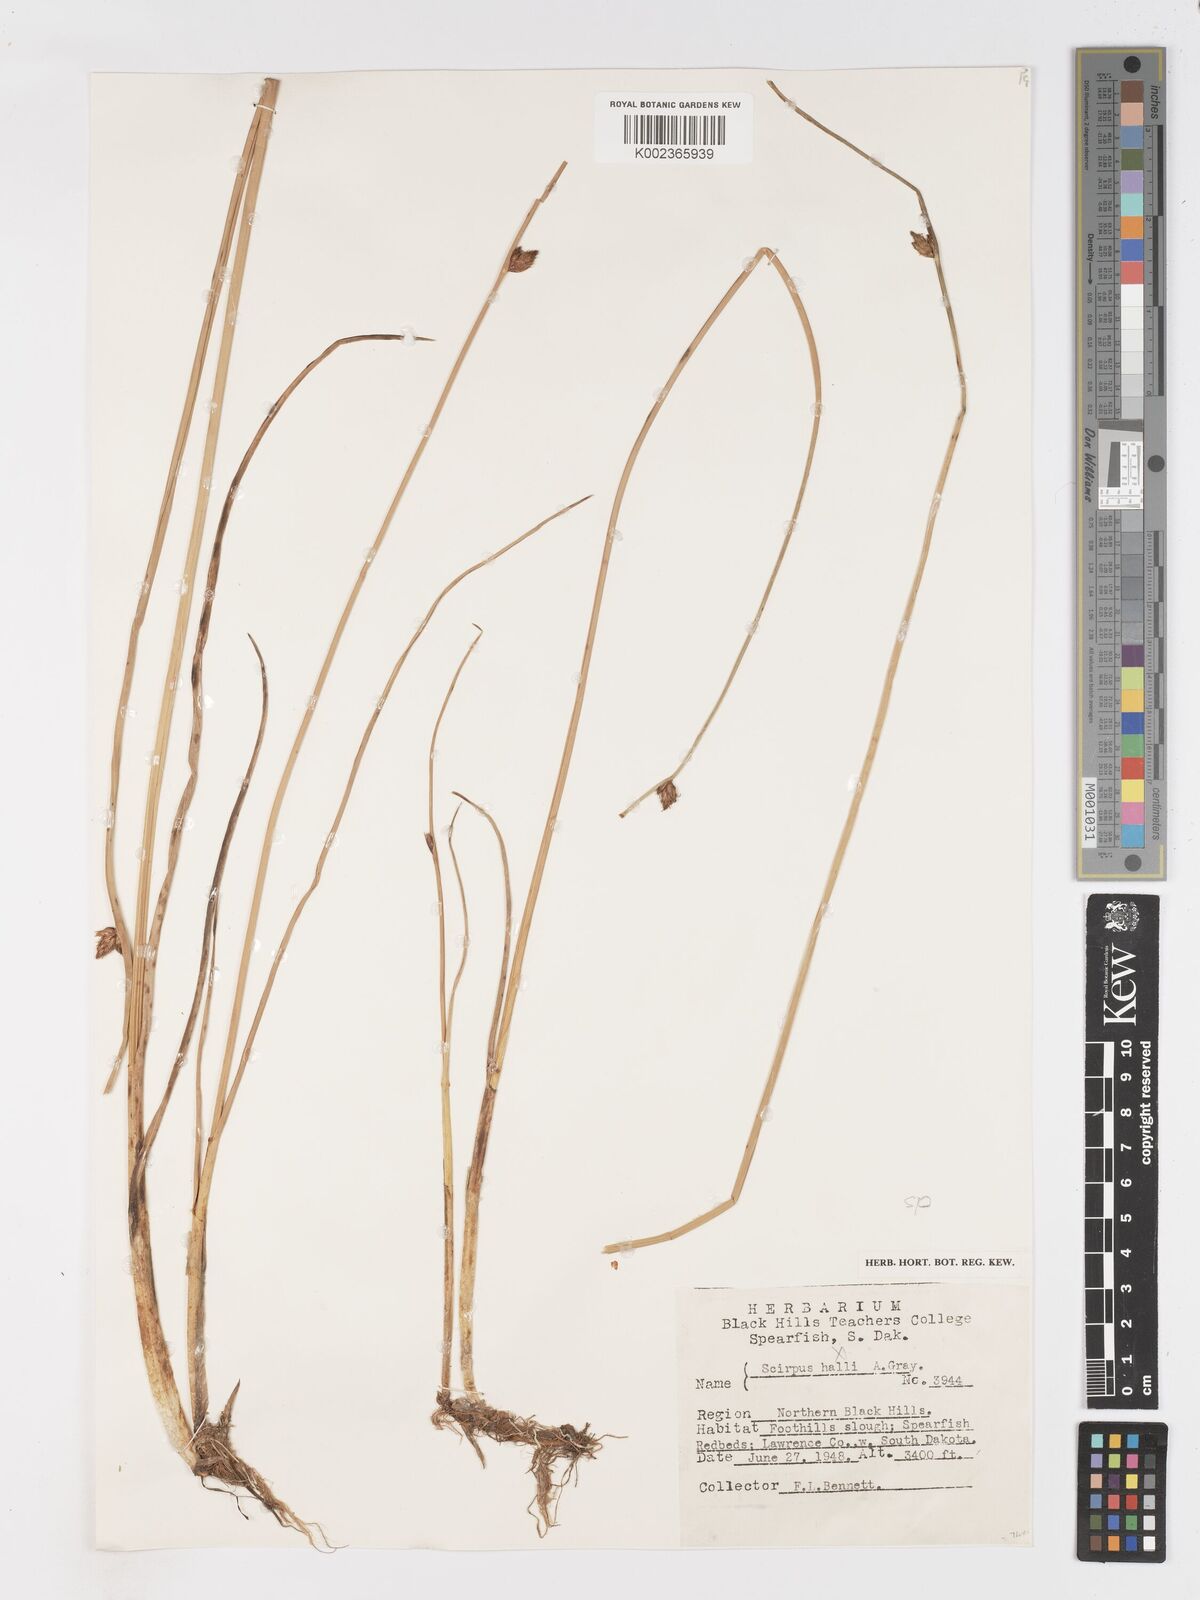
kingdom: Plantae
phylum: Tracheophyta
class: Liliopsida
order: Poales
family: Cyperaceae
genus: Schoenoplectus
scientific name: Schoenoplectus
